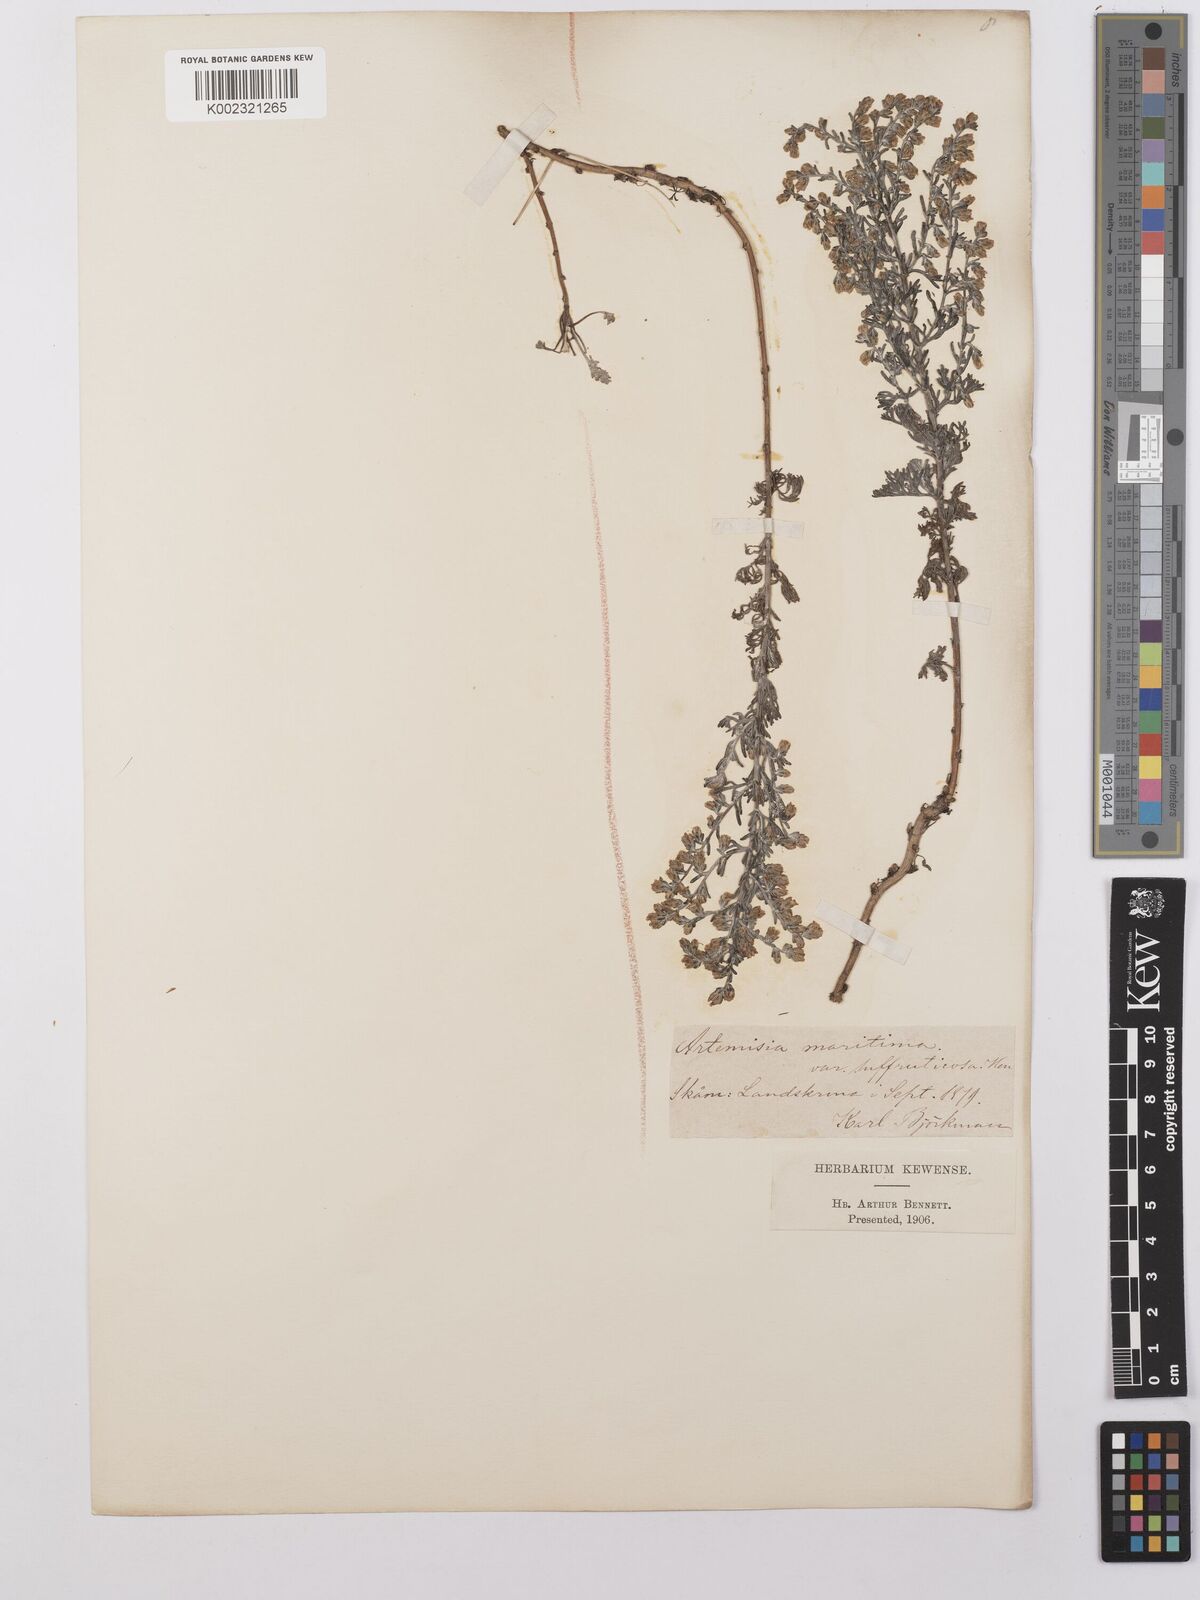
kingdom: Plantae
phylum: Tracheophyta
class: Magnoliopsida
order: Asterales
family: Asteraceae
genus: Artemisia
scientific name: Artemisia maritima
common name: Wormseed
